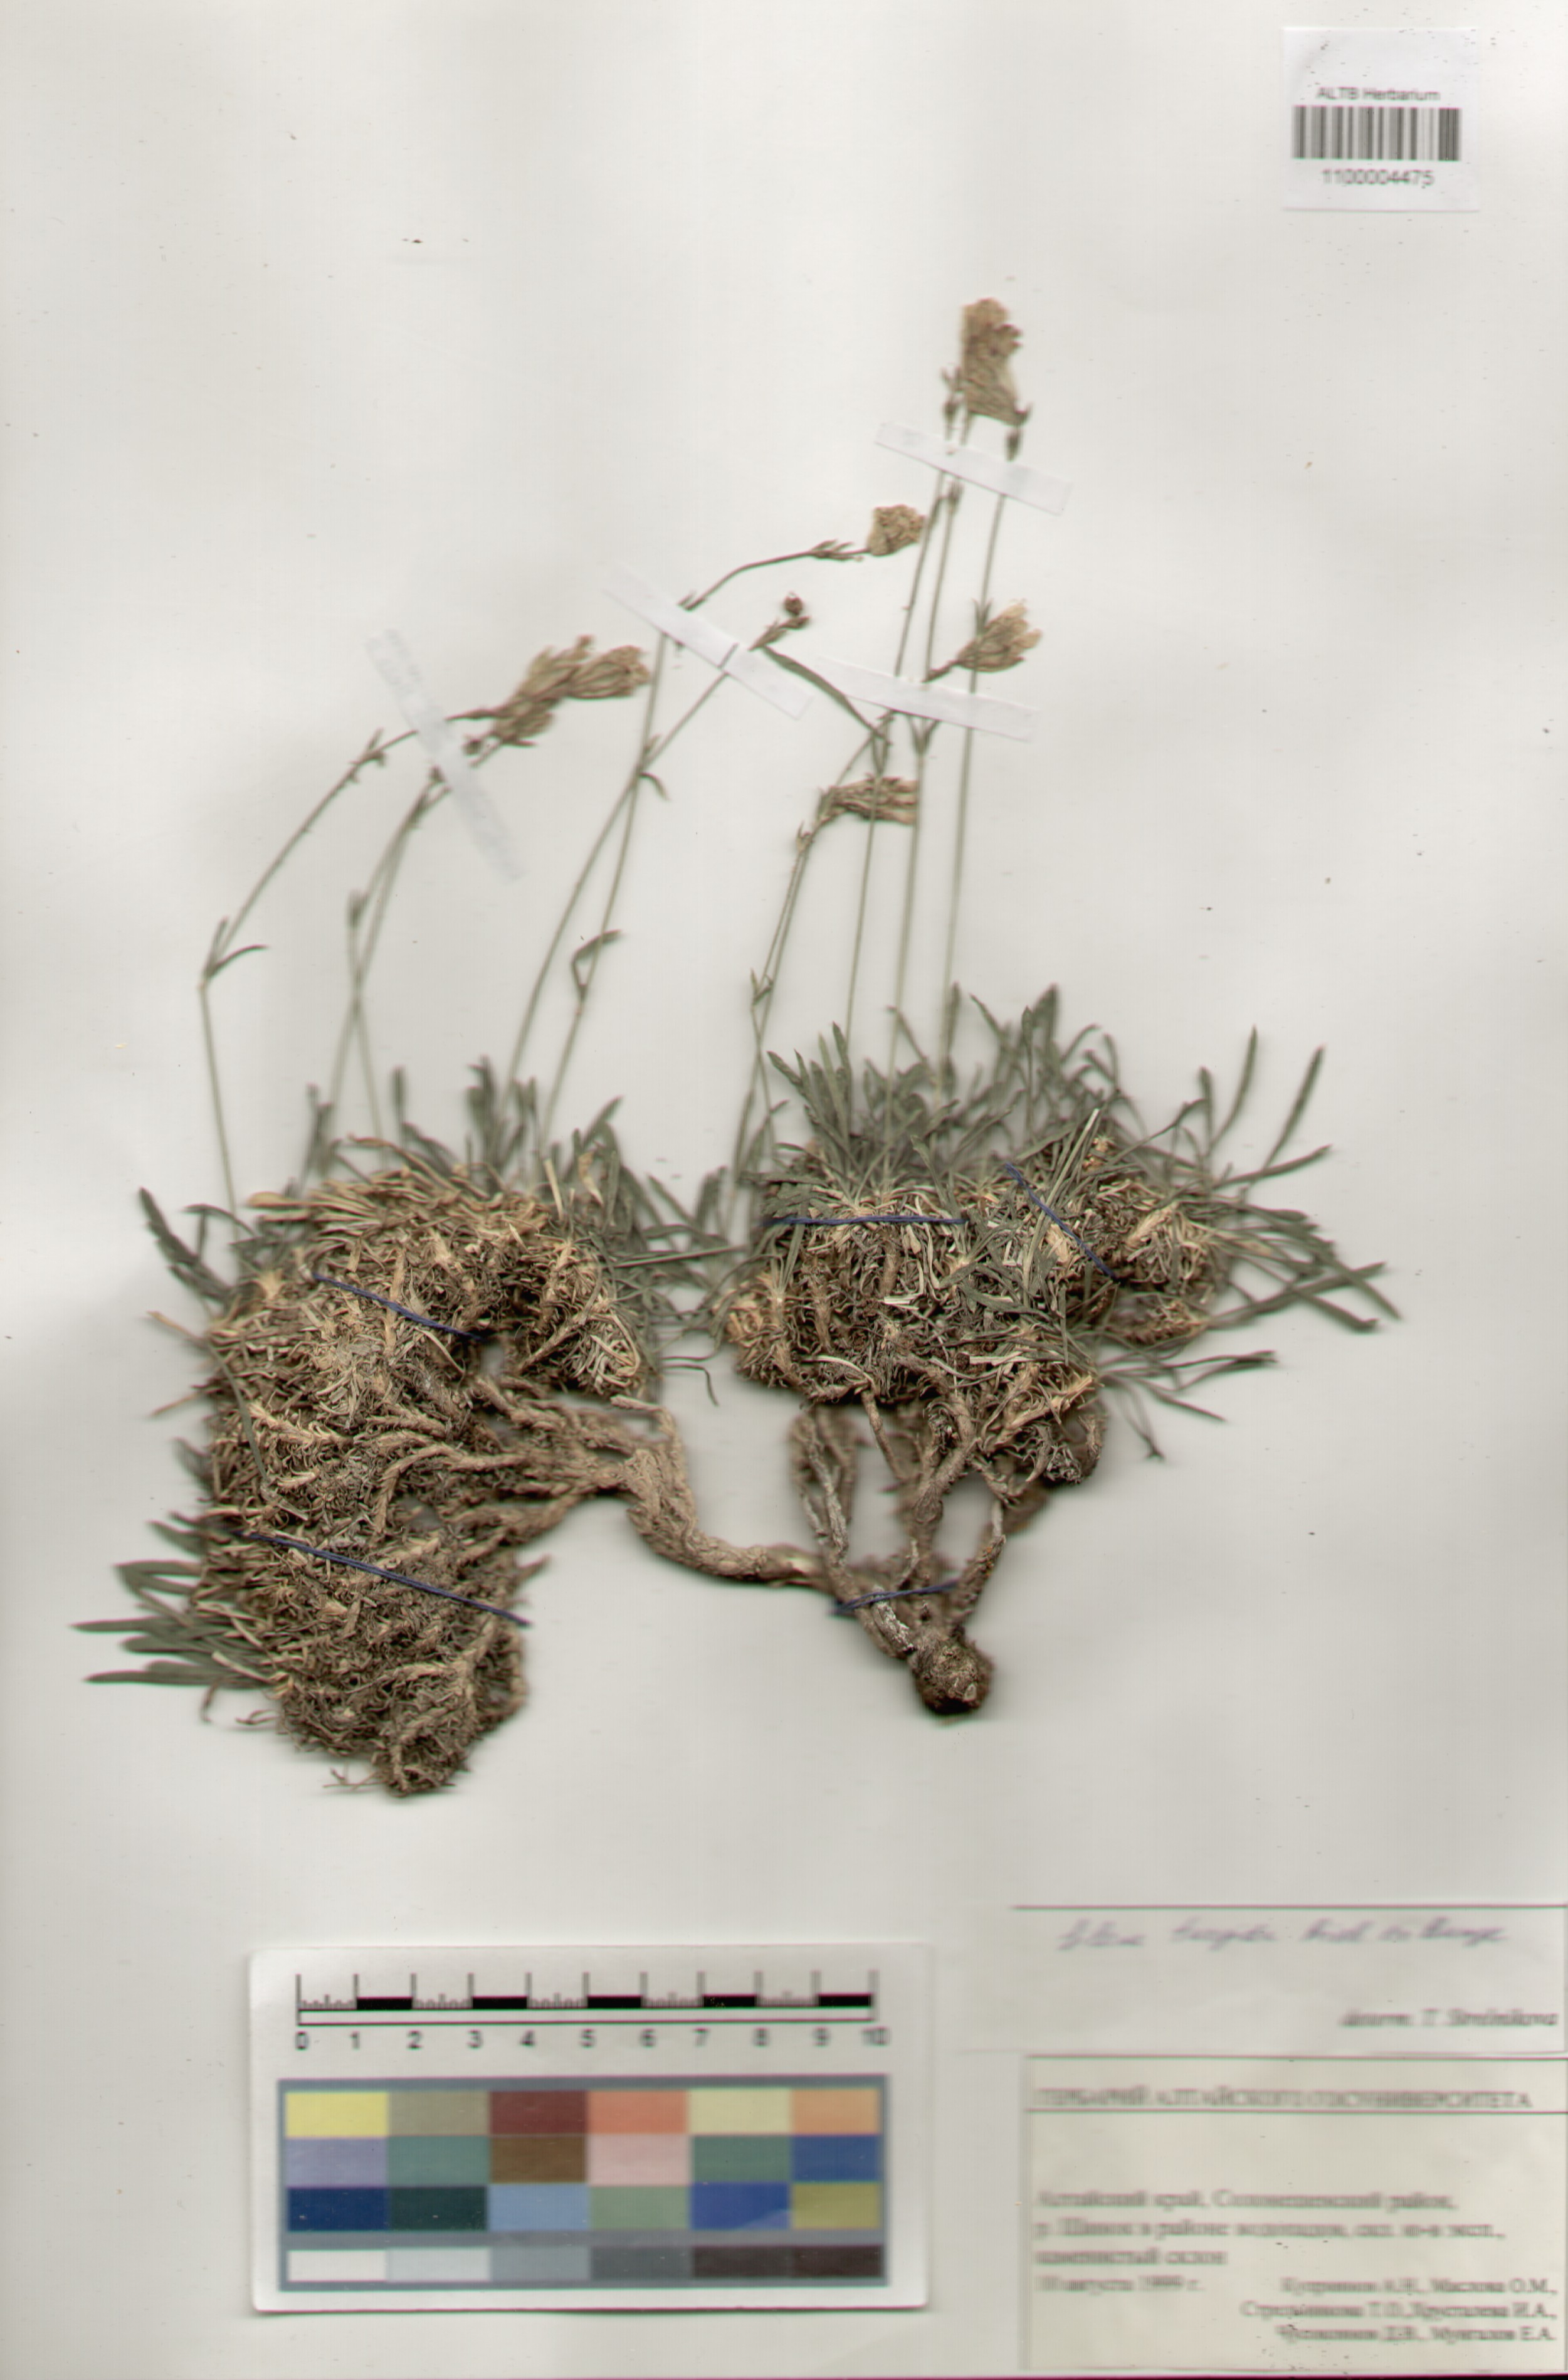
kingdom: Plantae
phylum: Tracheophyta
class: Magnoliopsida
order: Caryophyllales
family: Caryophyllaceae
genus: Silene
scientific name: Silene turgida
